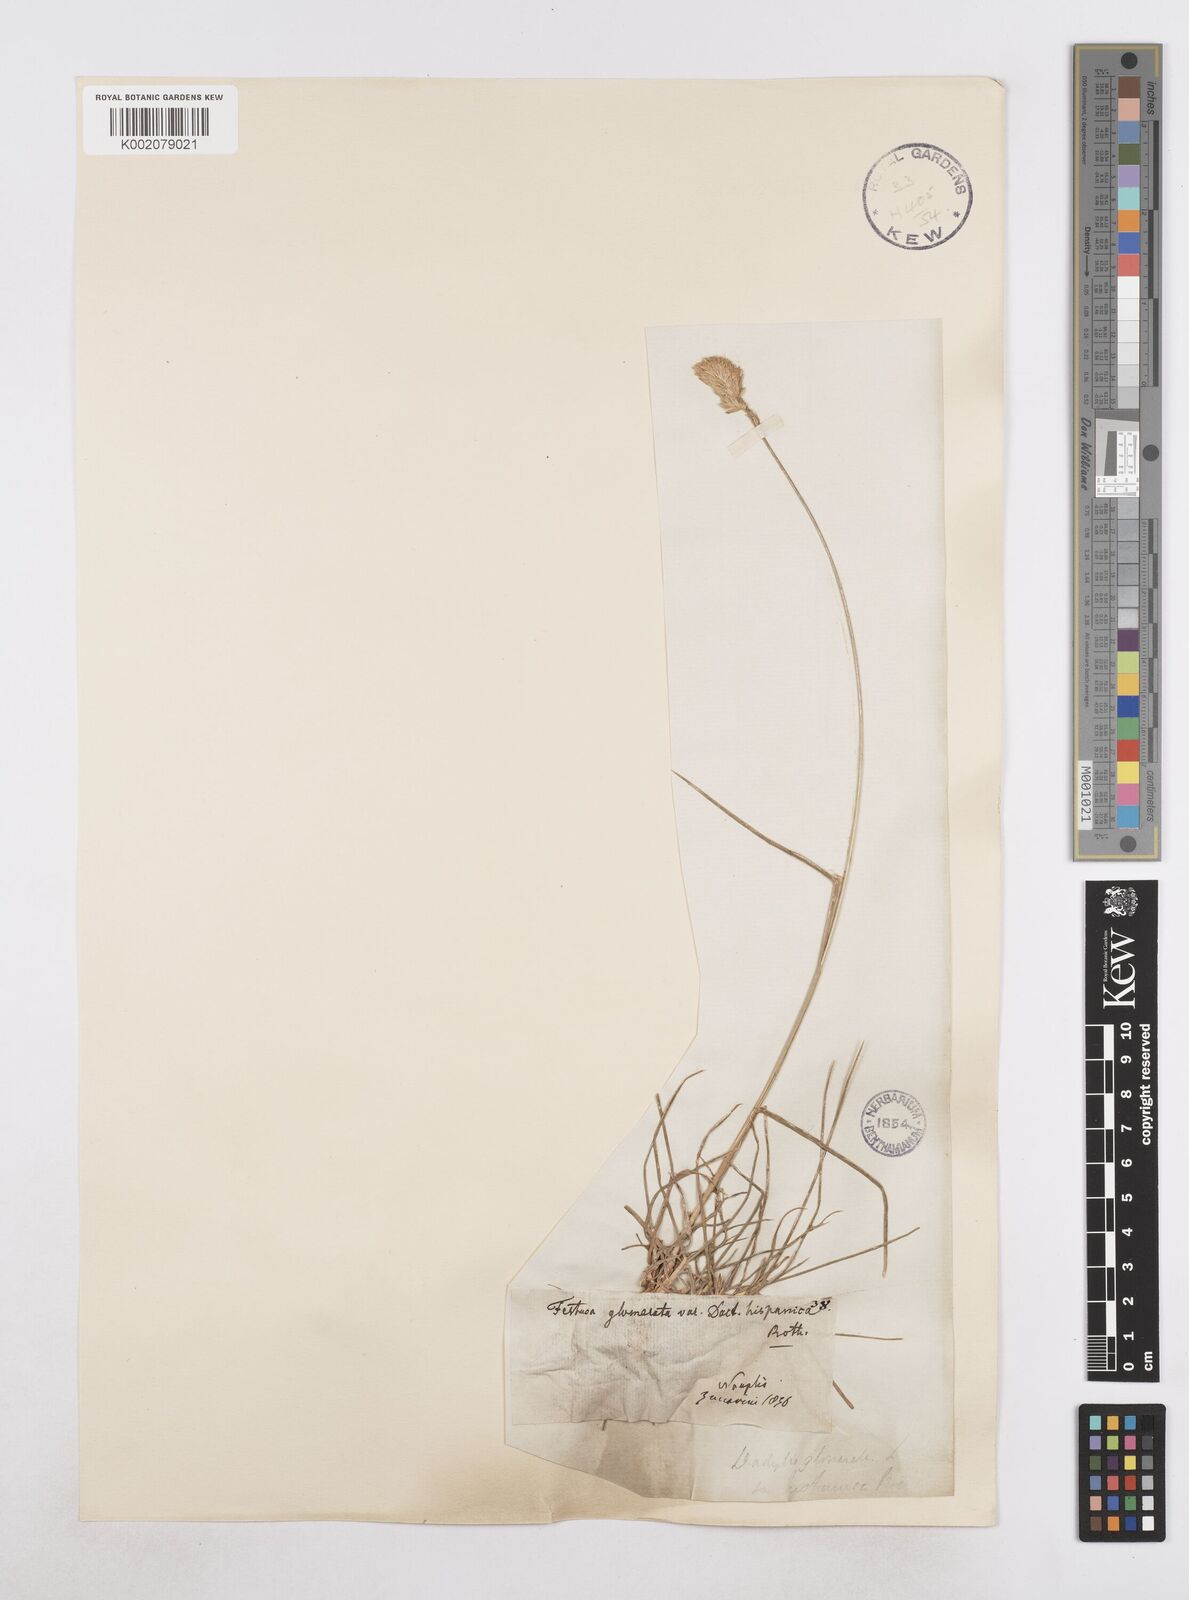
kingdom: Plantae
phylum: Tracheophyta
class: Liliopsida
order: Poales
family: Poaceae
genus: Dactylis
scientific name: Dactylis glomerata
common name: Orchardgrass
